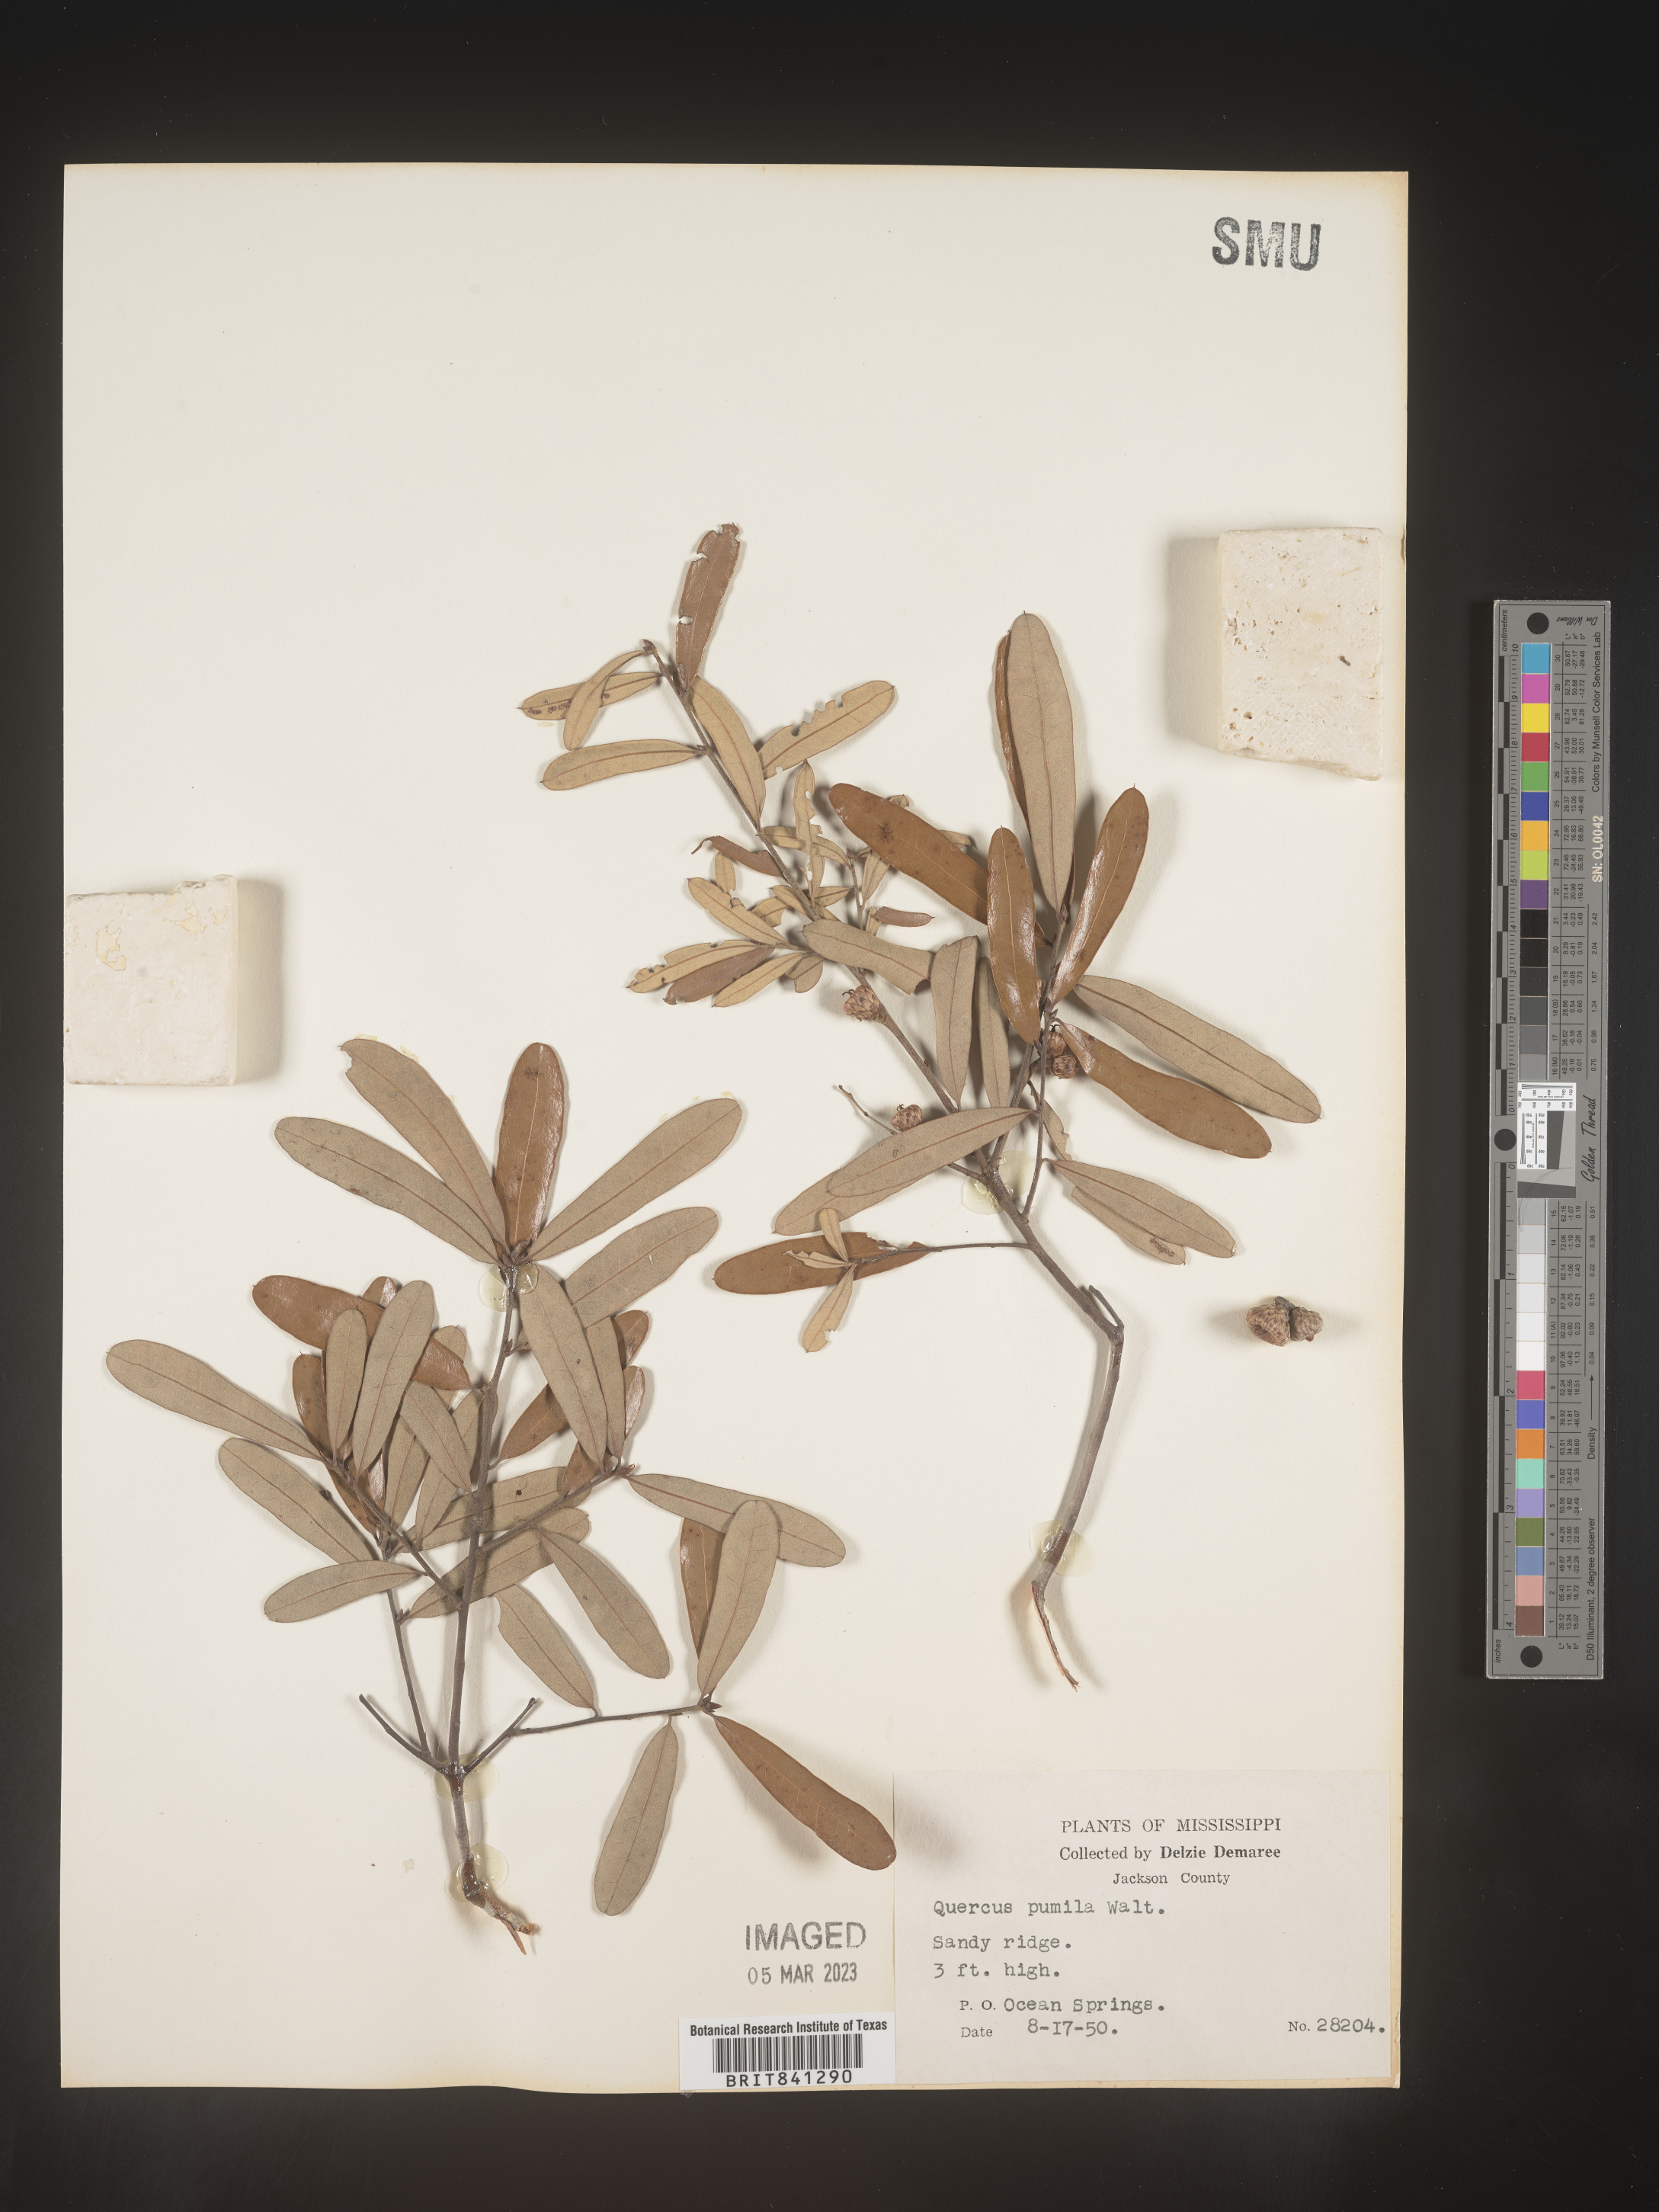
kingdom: Plantae
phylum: Tracheophyta
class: Magnoliopsida
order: Fagales
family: Fagaceae
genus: Quercus
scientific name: Quercus pumila
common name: Runner oak
